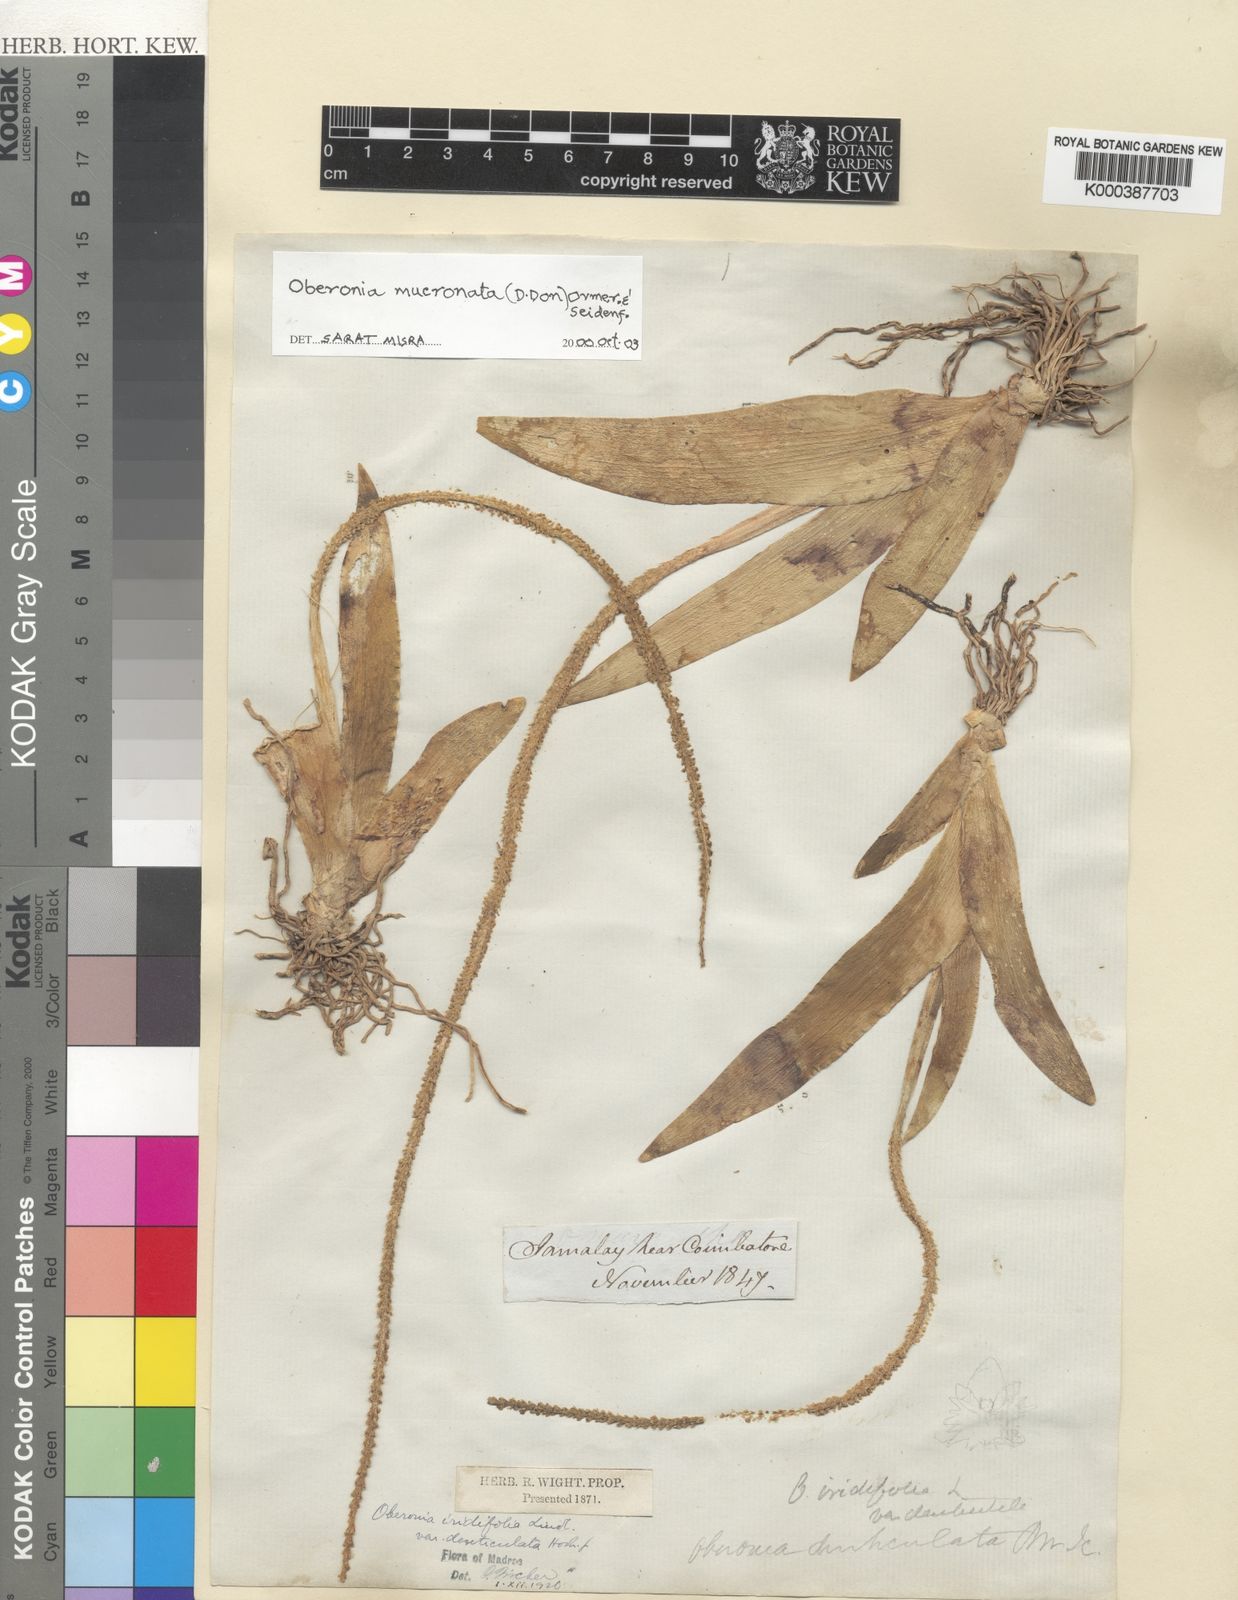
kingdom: Plantae
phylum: Tracheophyta
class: Liliopsida
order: Asparagales
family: Orchidaceae
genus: Oberonia
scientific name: Oberonia mucronata
